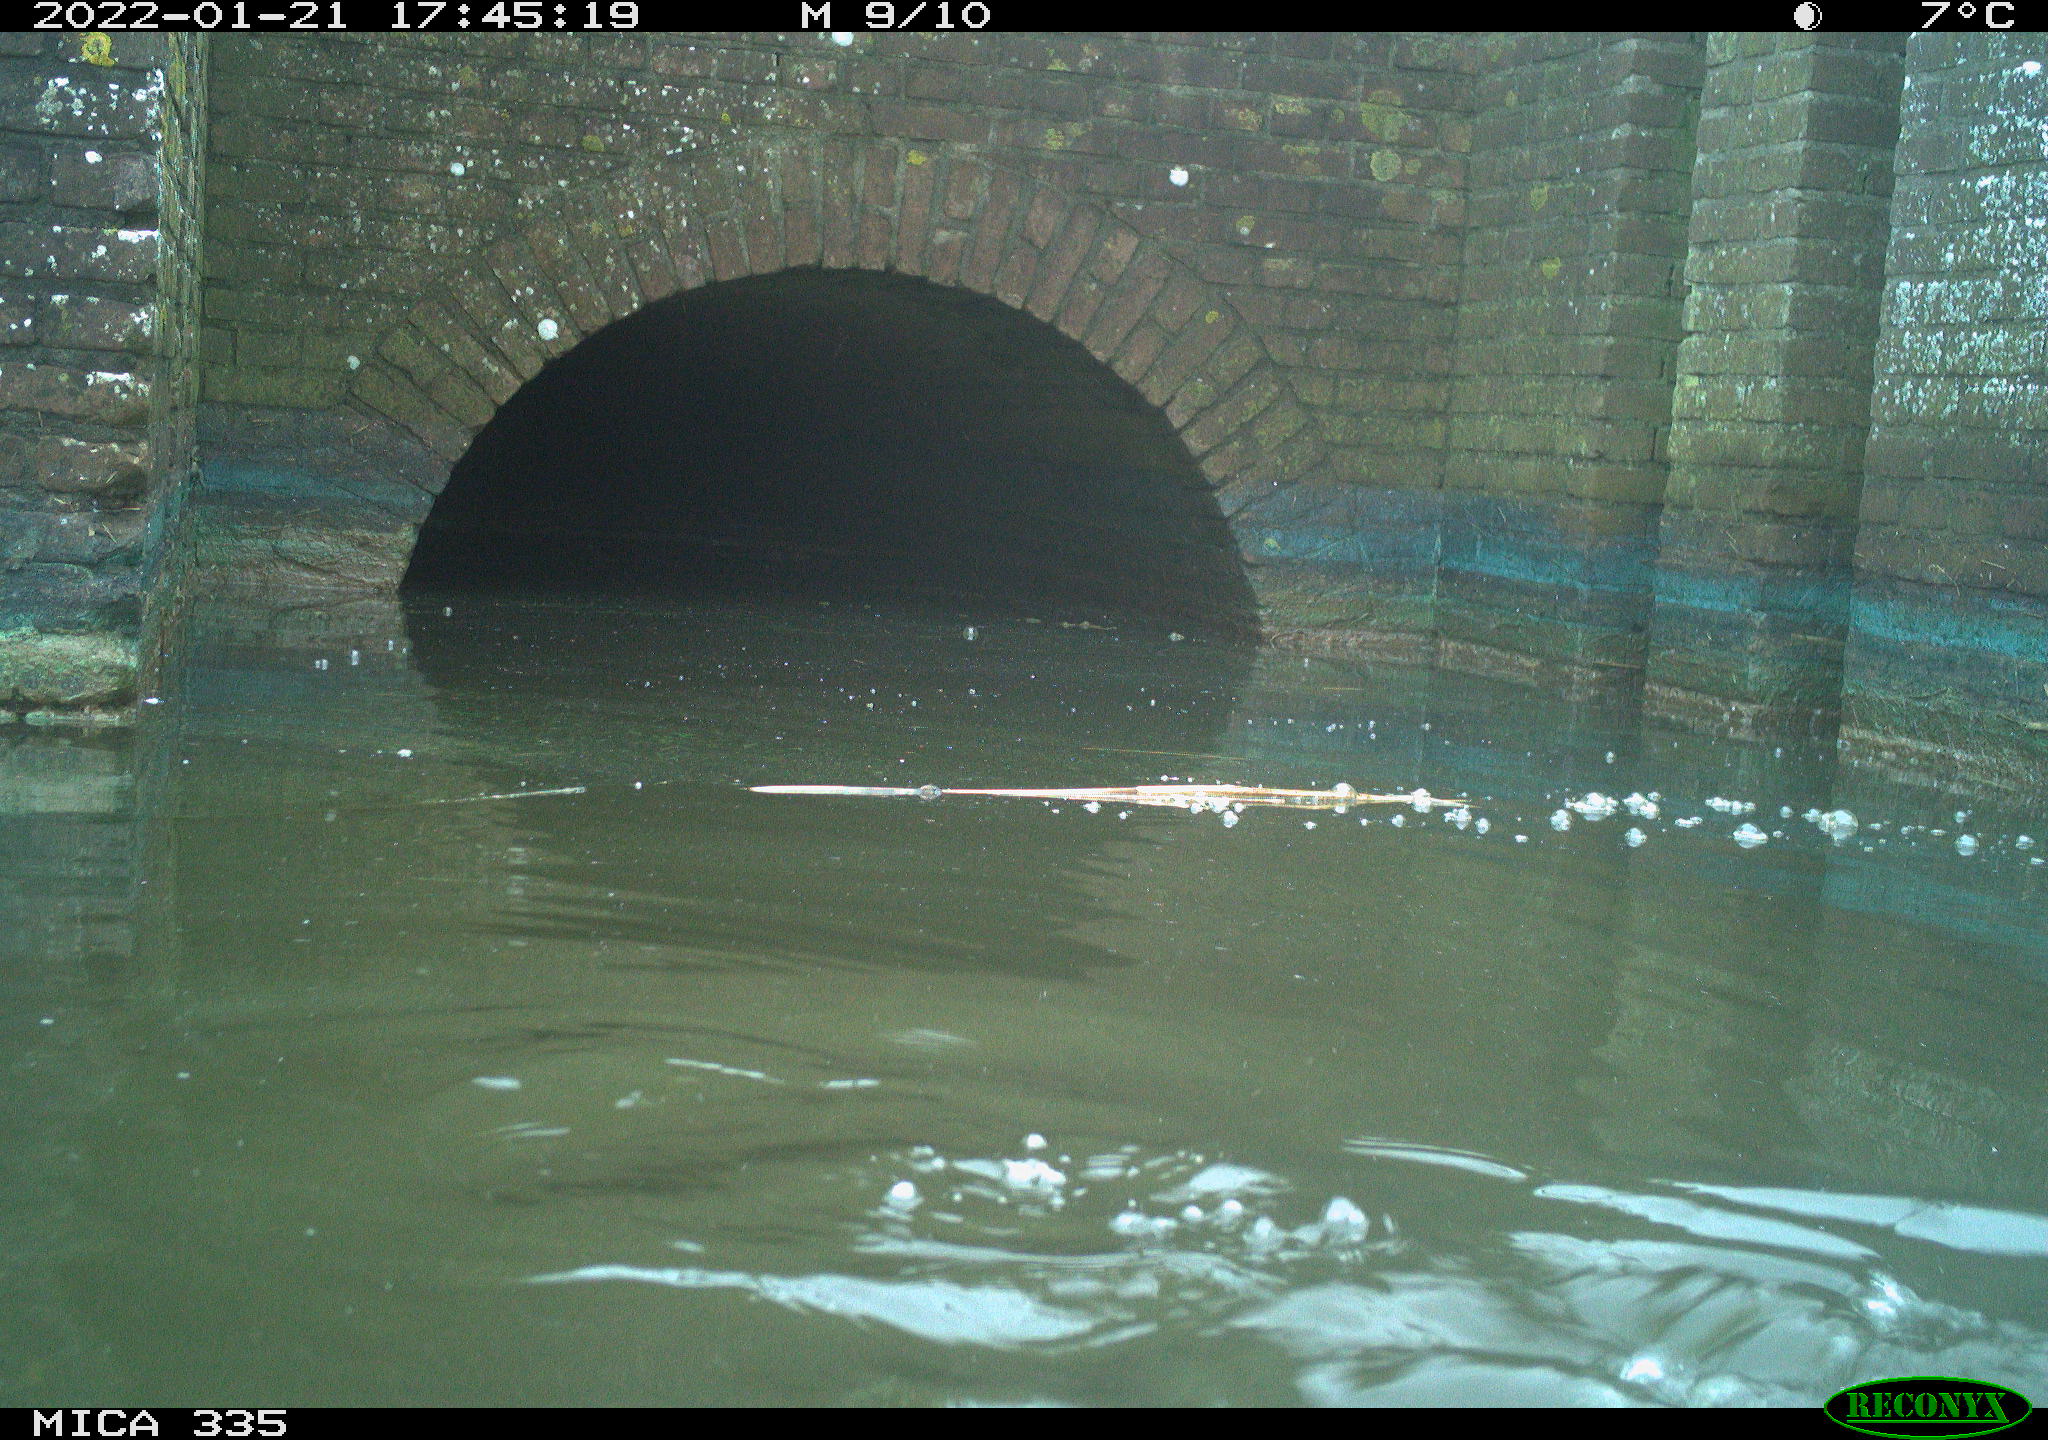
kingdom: Animalia
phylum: Chordata
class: Aves
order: Suliformes
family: Phalacrocoracidae
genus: Phalacrocorax
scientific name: Phalacrocorax carbo
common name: Great cormorant
